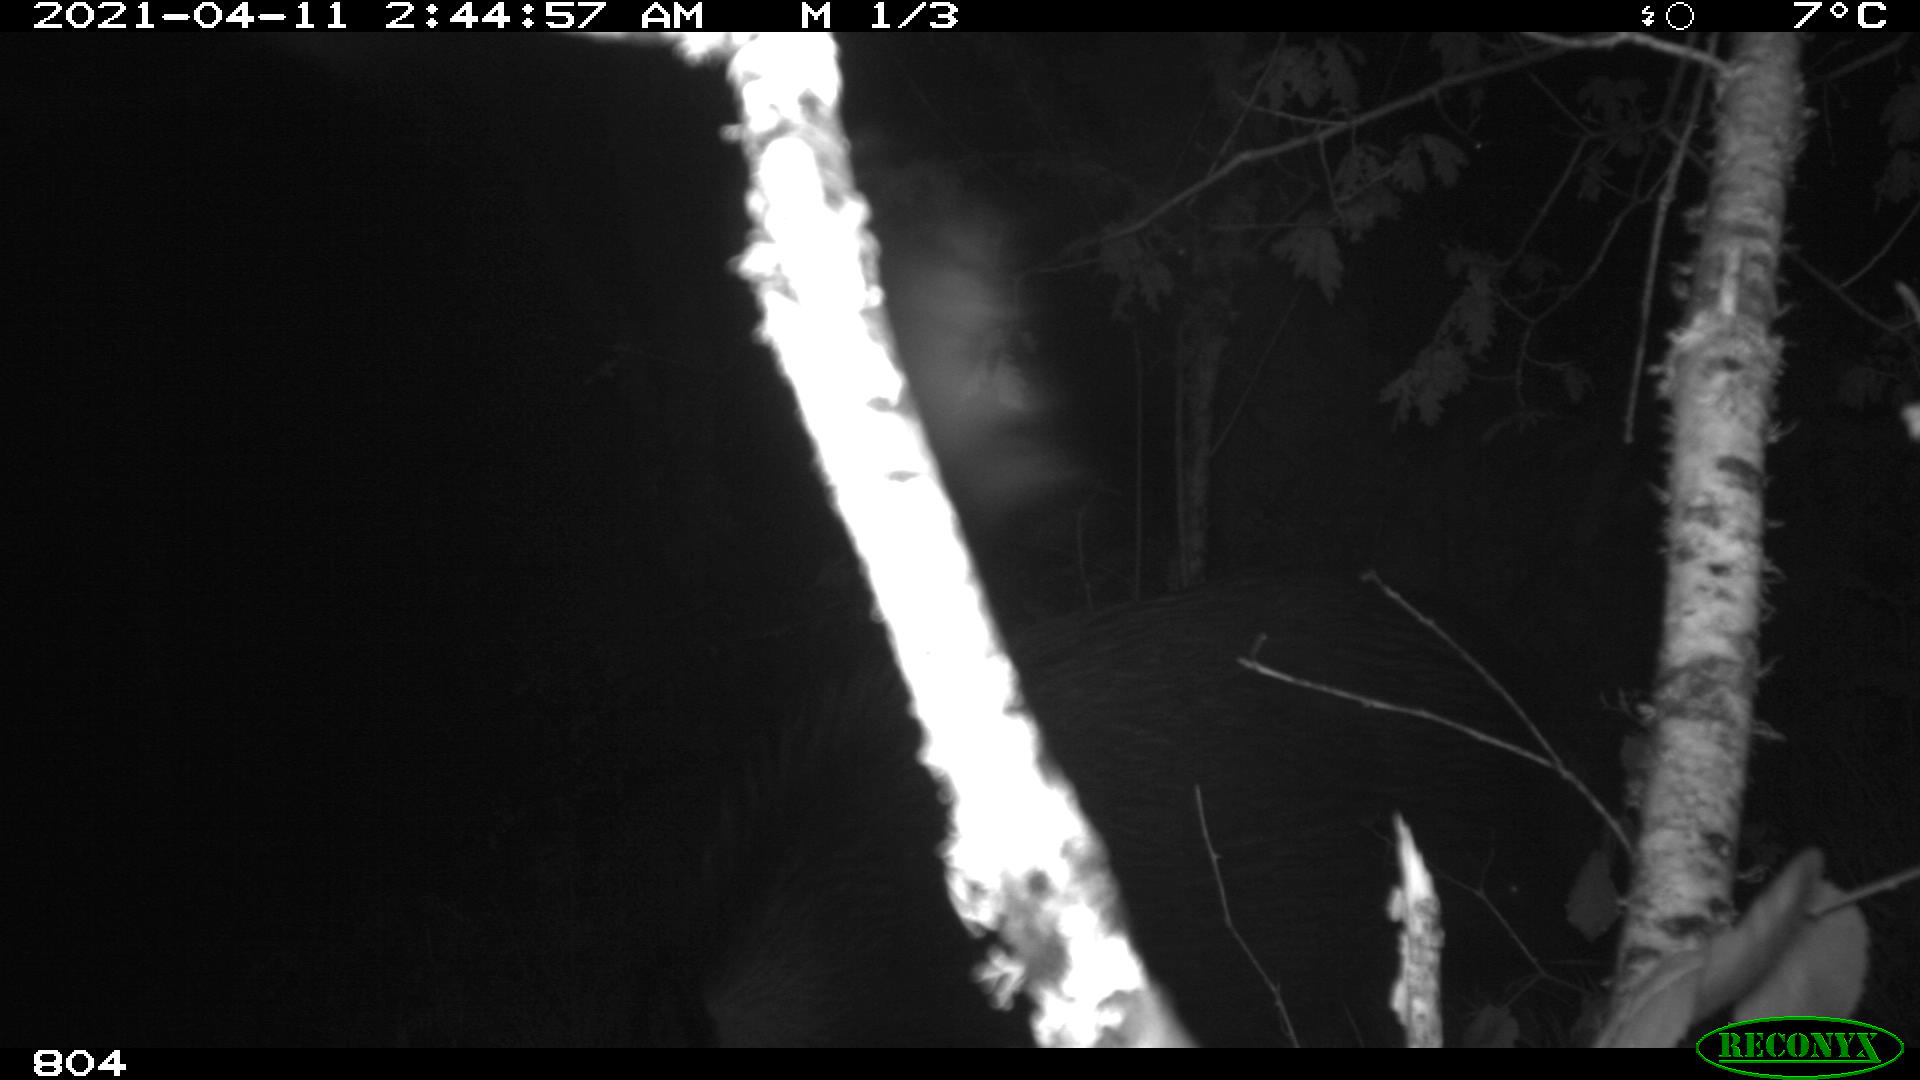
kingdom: Animalia
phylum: Chordata
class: Mammalia
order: Artiodactyla
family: Suidae
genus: Sus
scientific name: Sus scrofa
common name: Wild boar
